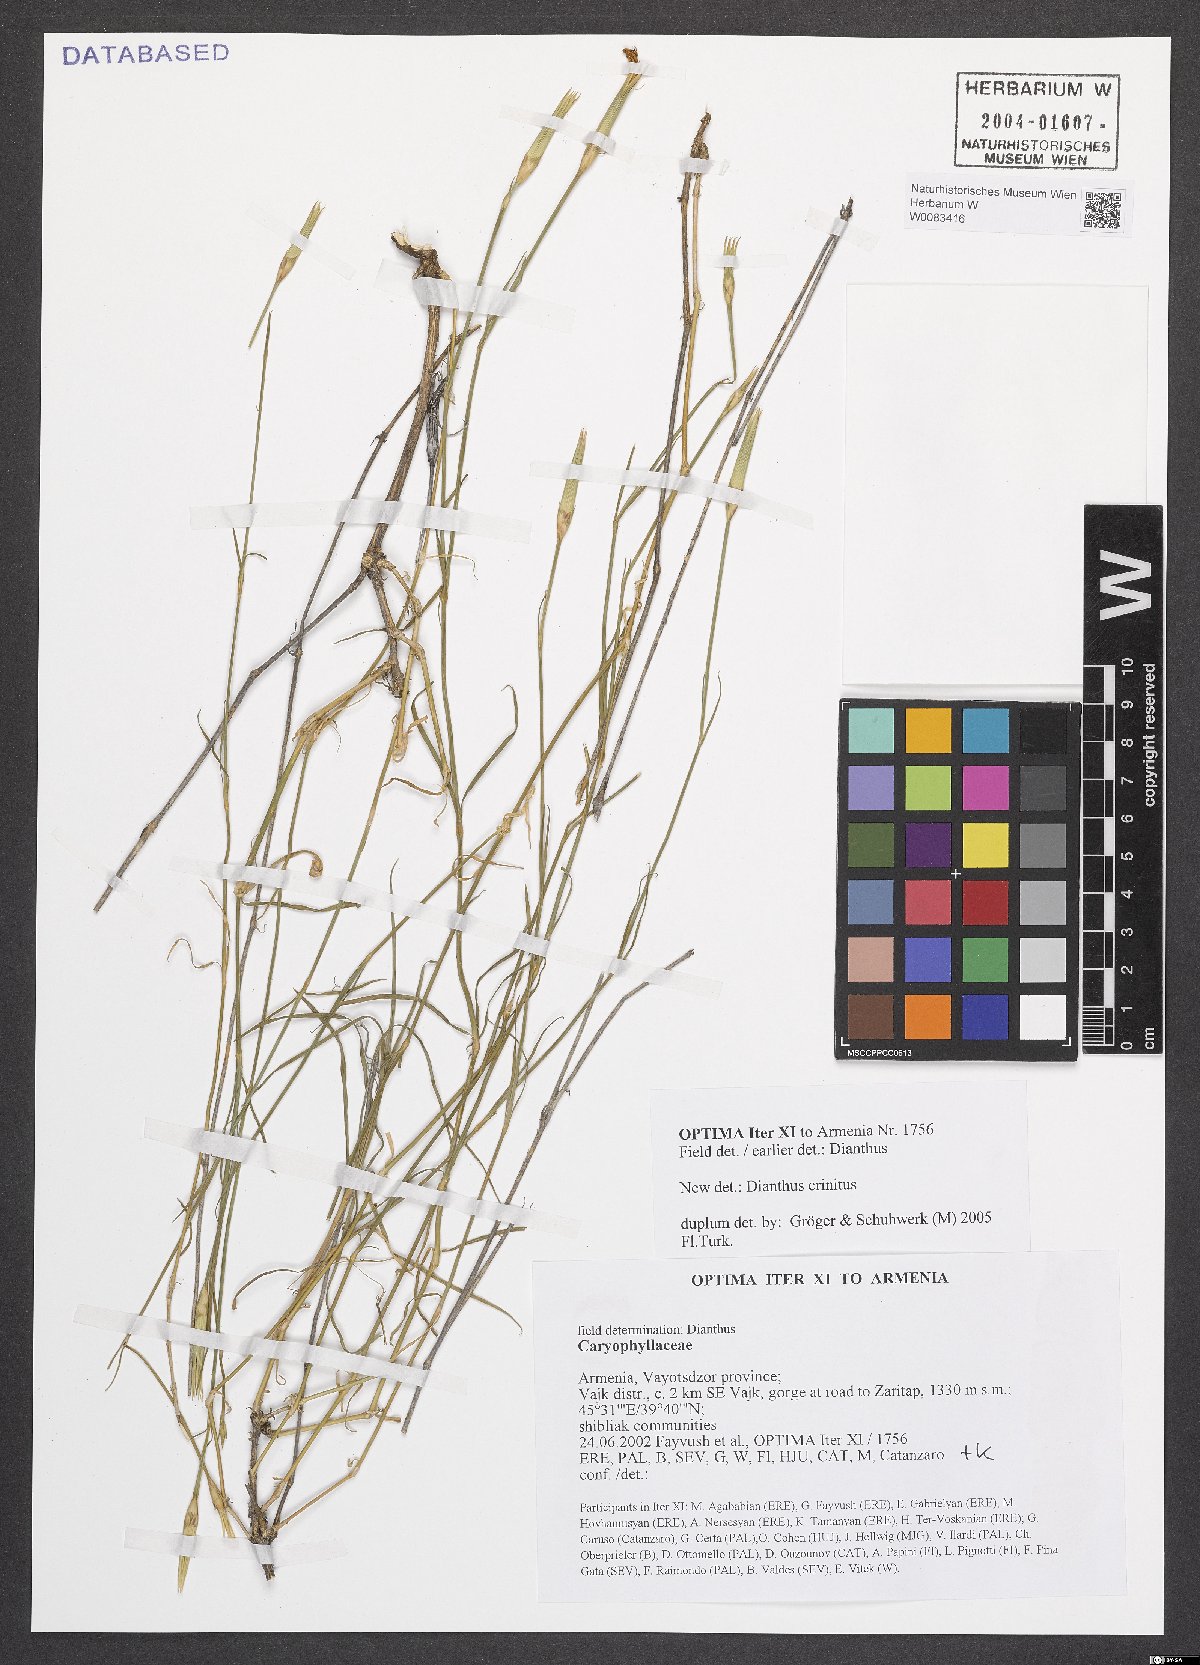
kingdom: Plantae
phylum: Tracheophyta
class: Magnoliopsida
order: Caryophyllales
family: Caryophyllaceae
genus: Dianthus
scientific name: Dianthus crinitus
